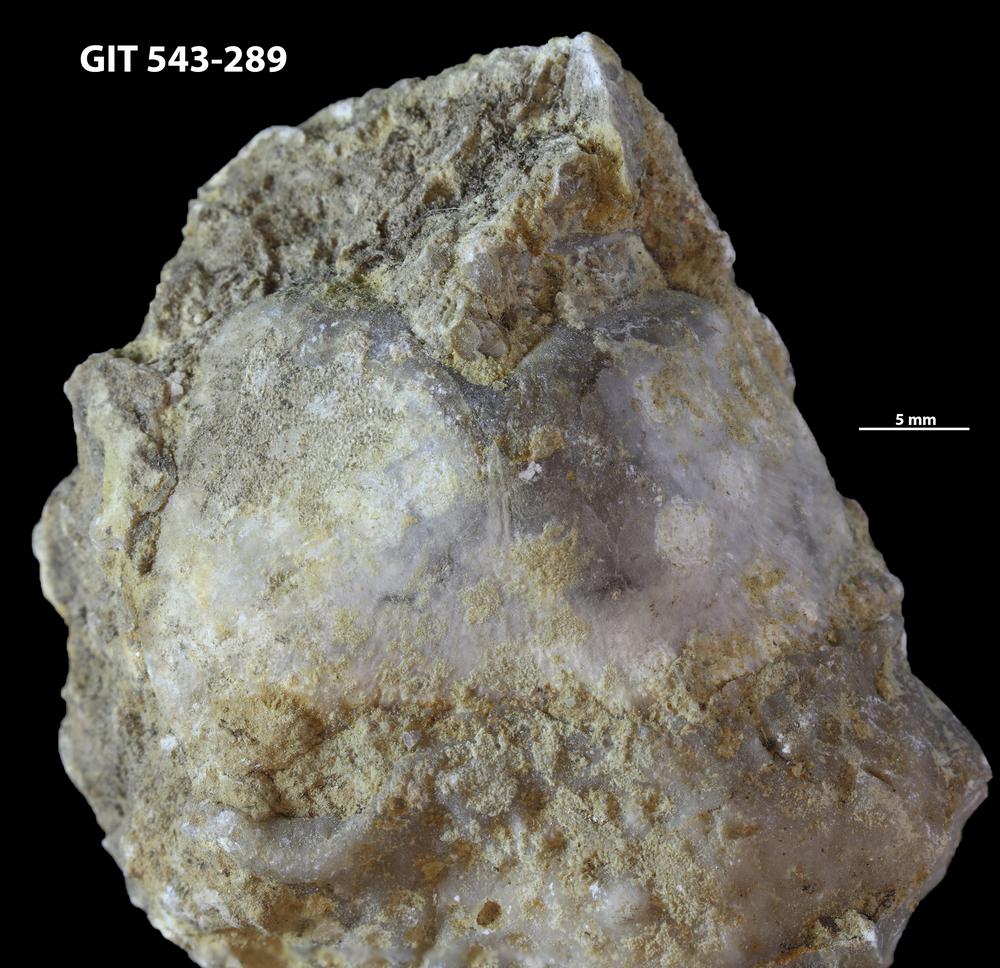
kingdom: Animalia
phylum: Brachiopoda
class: Rhynchonellata
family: Clitambonitidae
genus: Ilmarinia
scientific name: Ilmarinia
